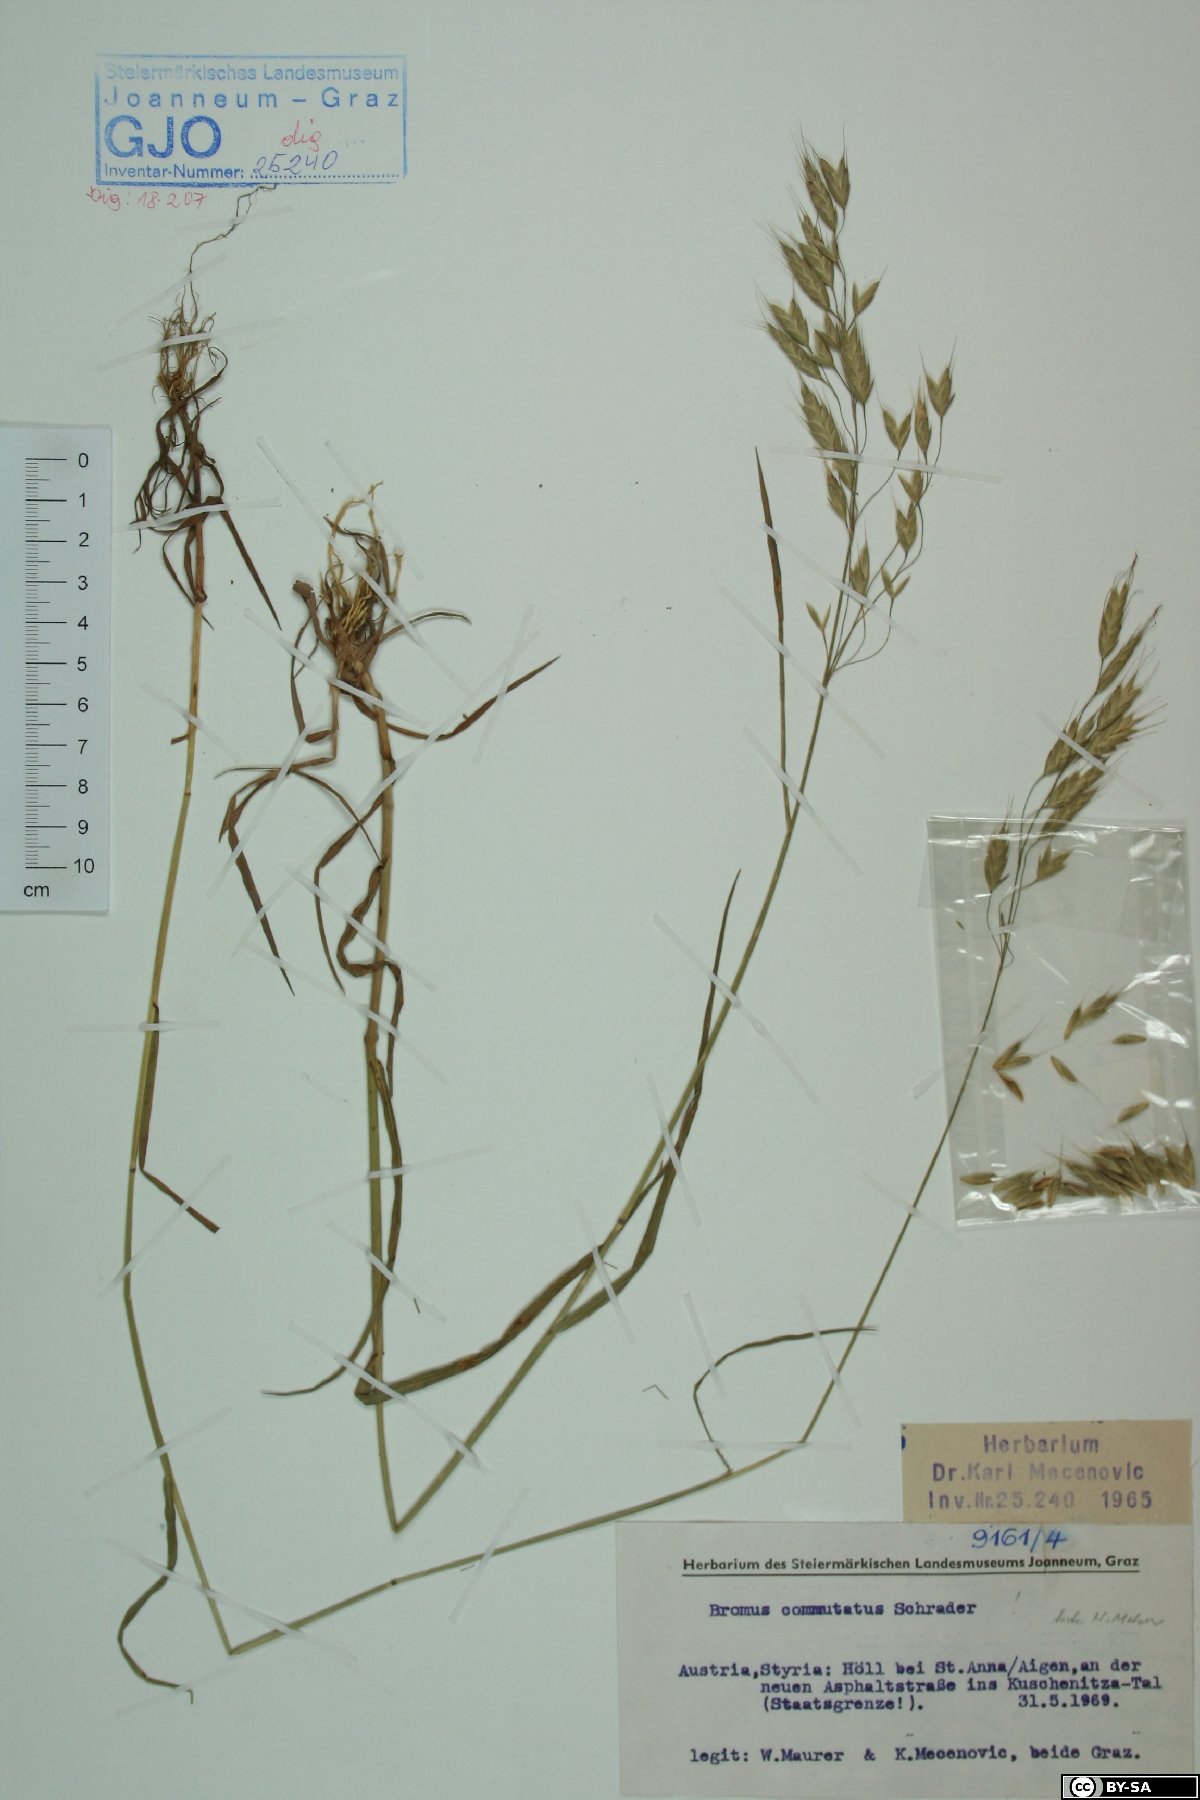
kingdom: Plantae
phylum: Tracheophyta
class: Liliopsida
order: Poales
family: Poaceae
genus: Bromus
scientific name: Bromus commutatus
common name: Meadow brome
